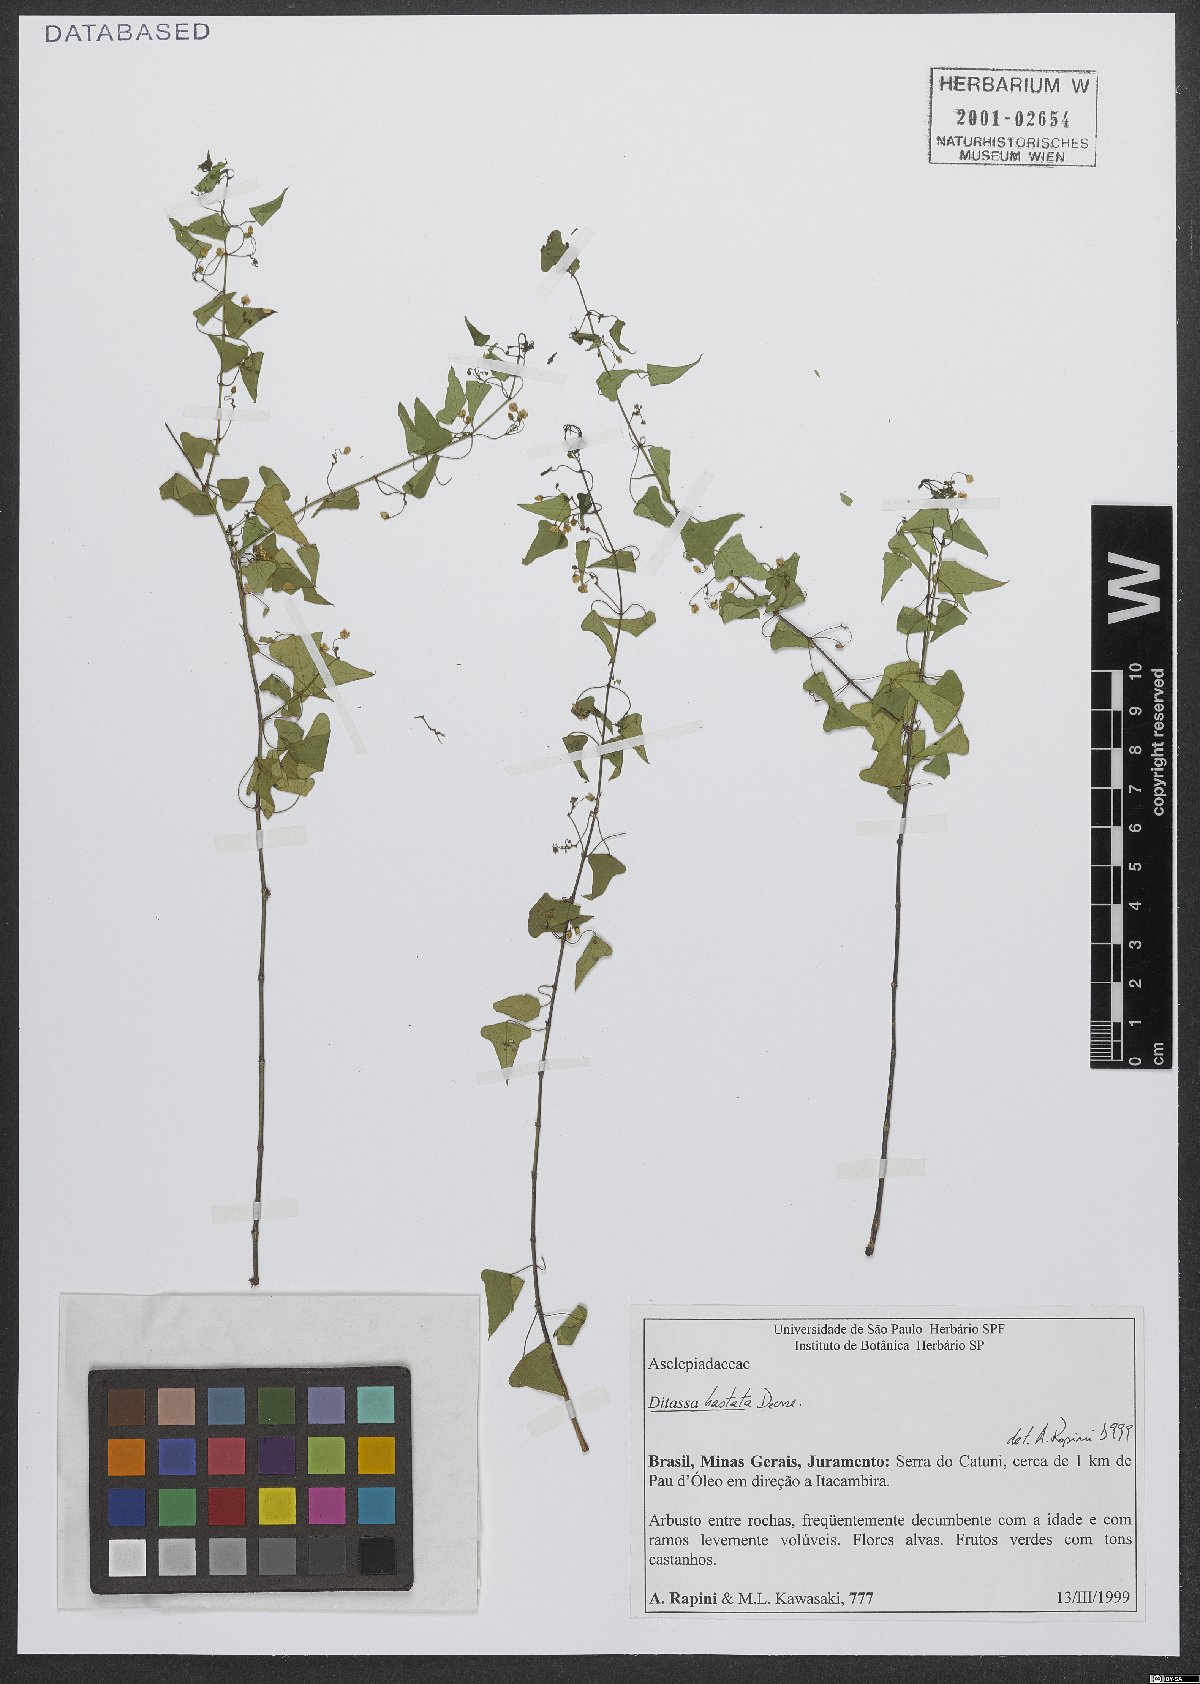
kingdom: Plantae
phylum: Tracheophyta
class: Magnoliopsida
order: Gentianales
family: Apocynaceae
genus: Ditassa
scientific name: Ditassa hastata
